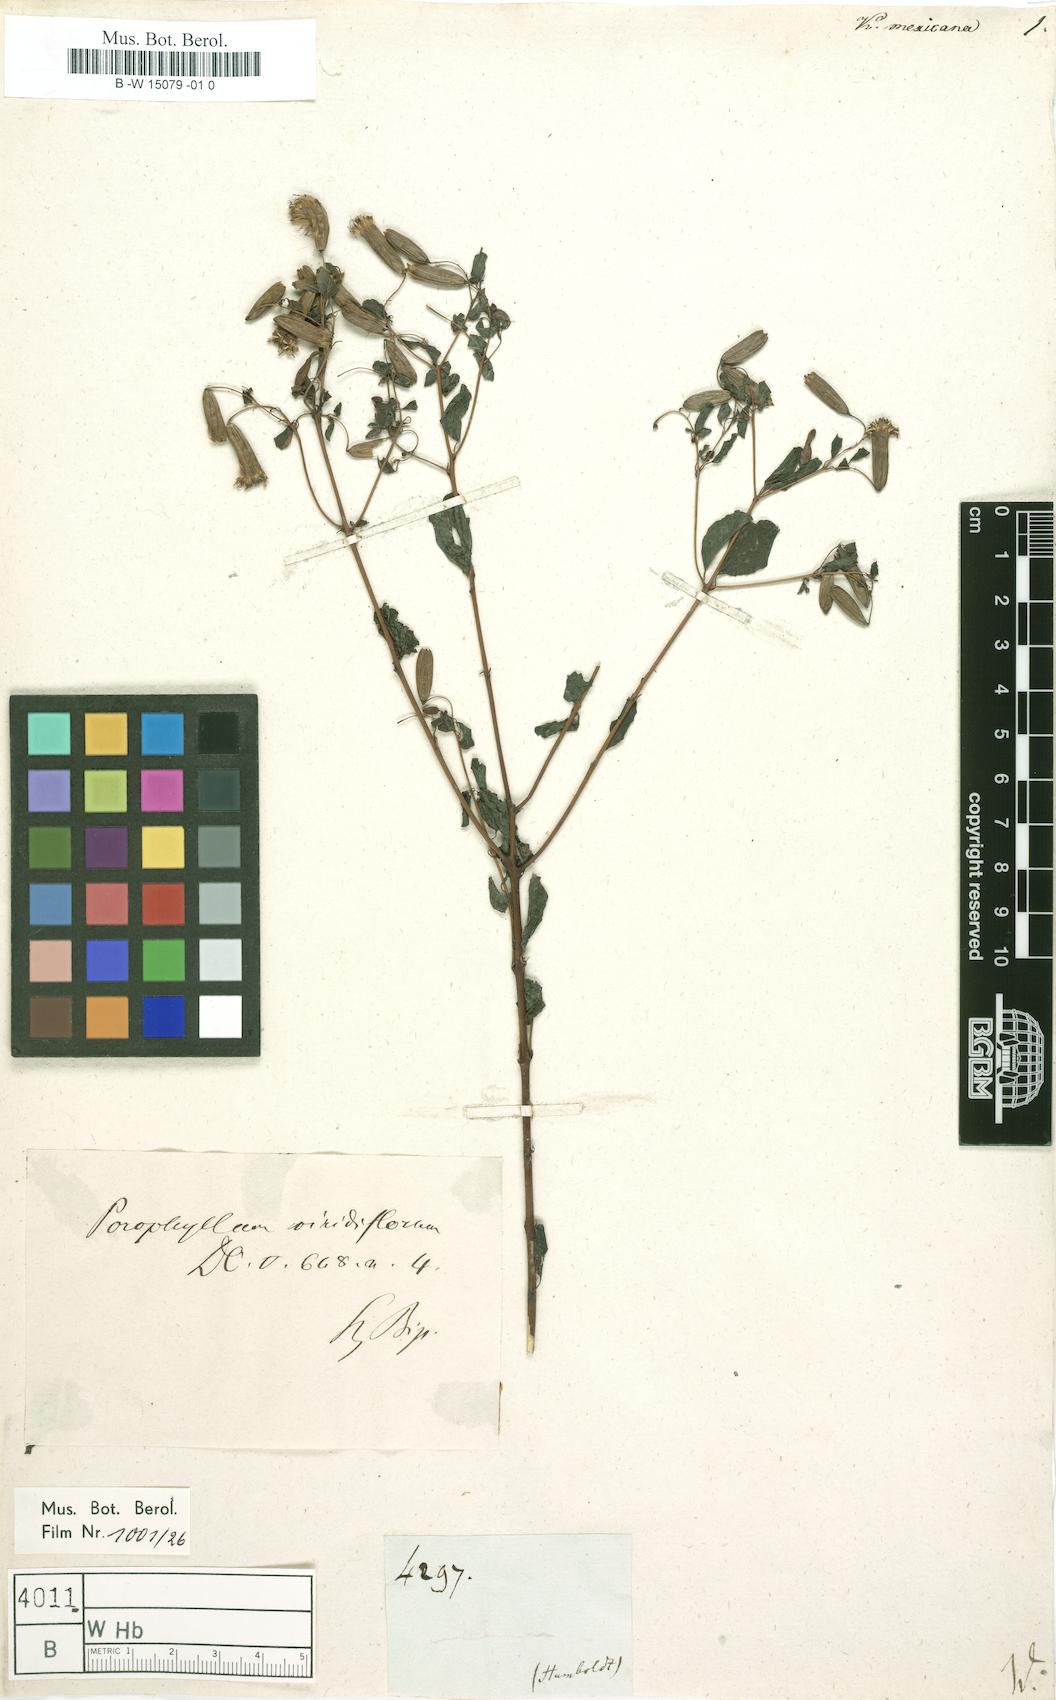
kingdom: Plantae
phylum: Tracheophyta
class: Magnoliopsida
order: Asterales
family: Asteraceae
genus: Espejoa
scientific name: Espejoa mexicana
